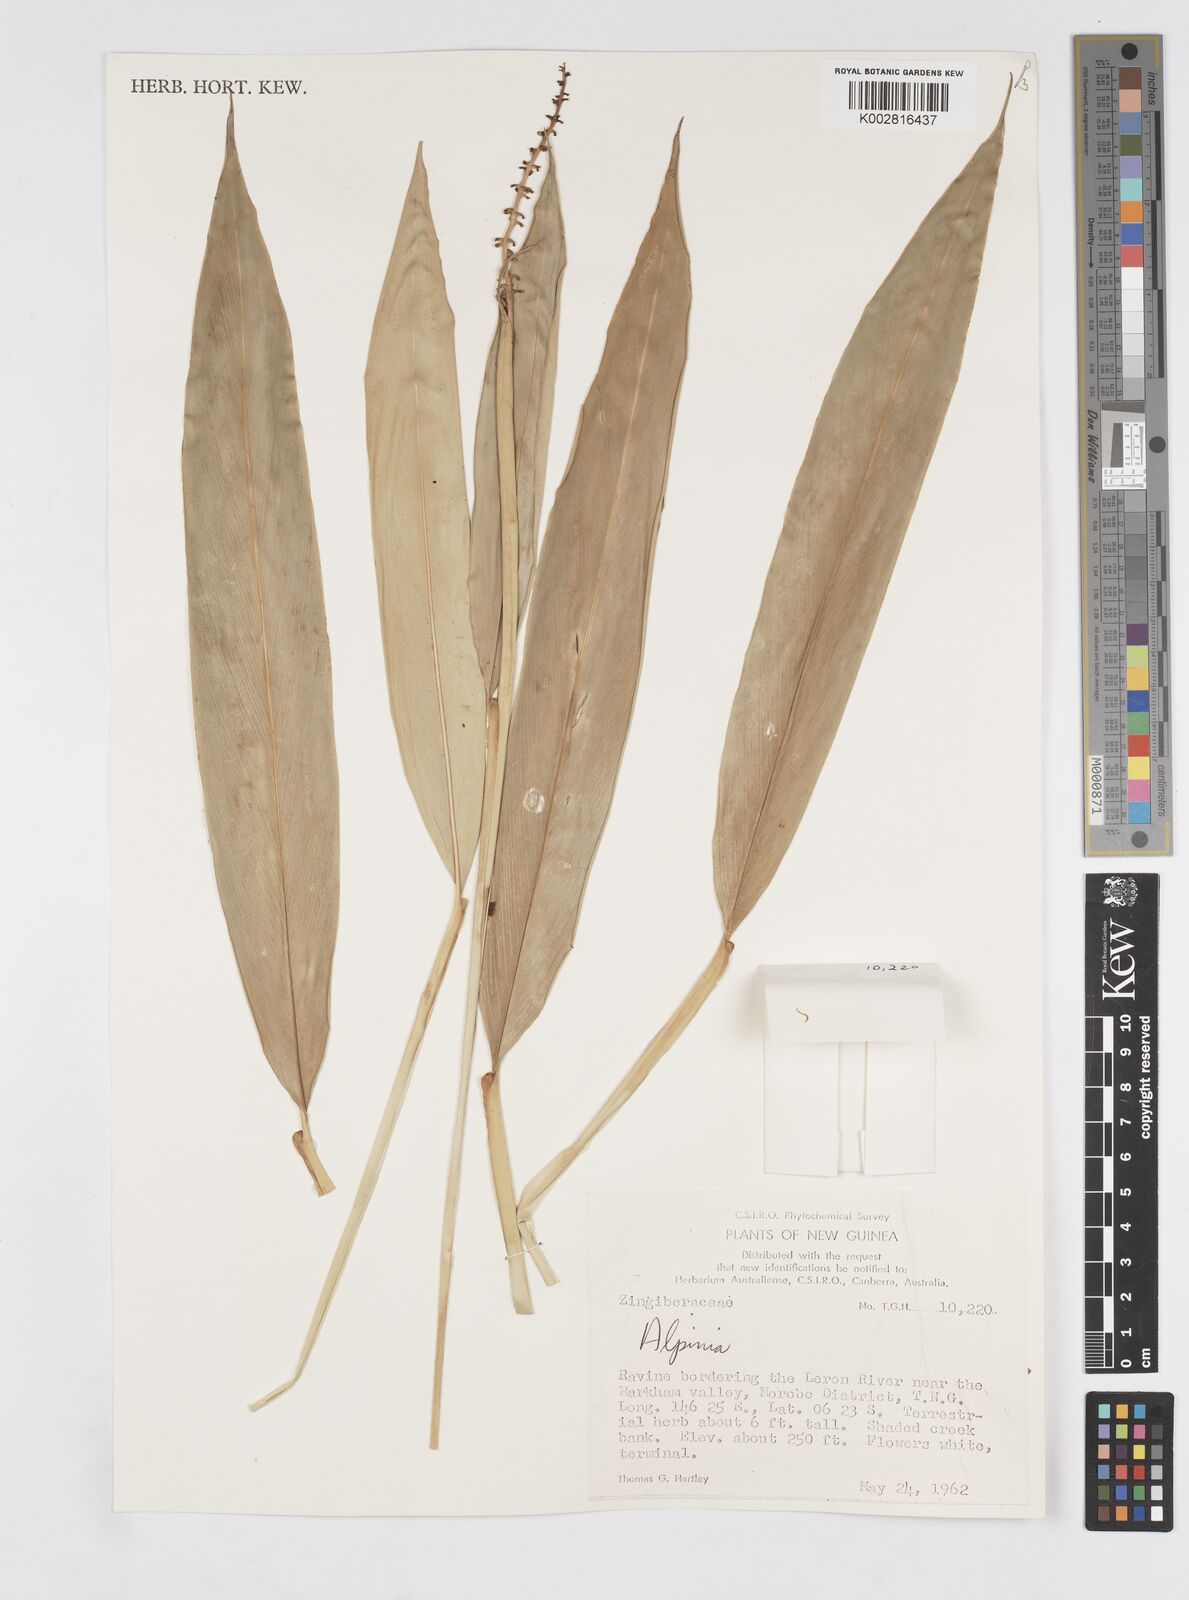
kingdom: Plantae
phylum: Tracheophyta
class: Liliopsida
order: Zingiberales
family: Zingiberaceae
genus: Alpinia
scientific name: Alpinia
